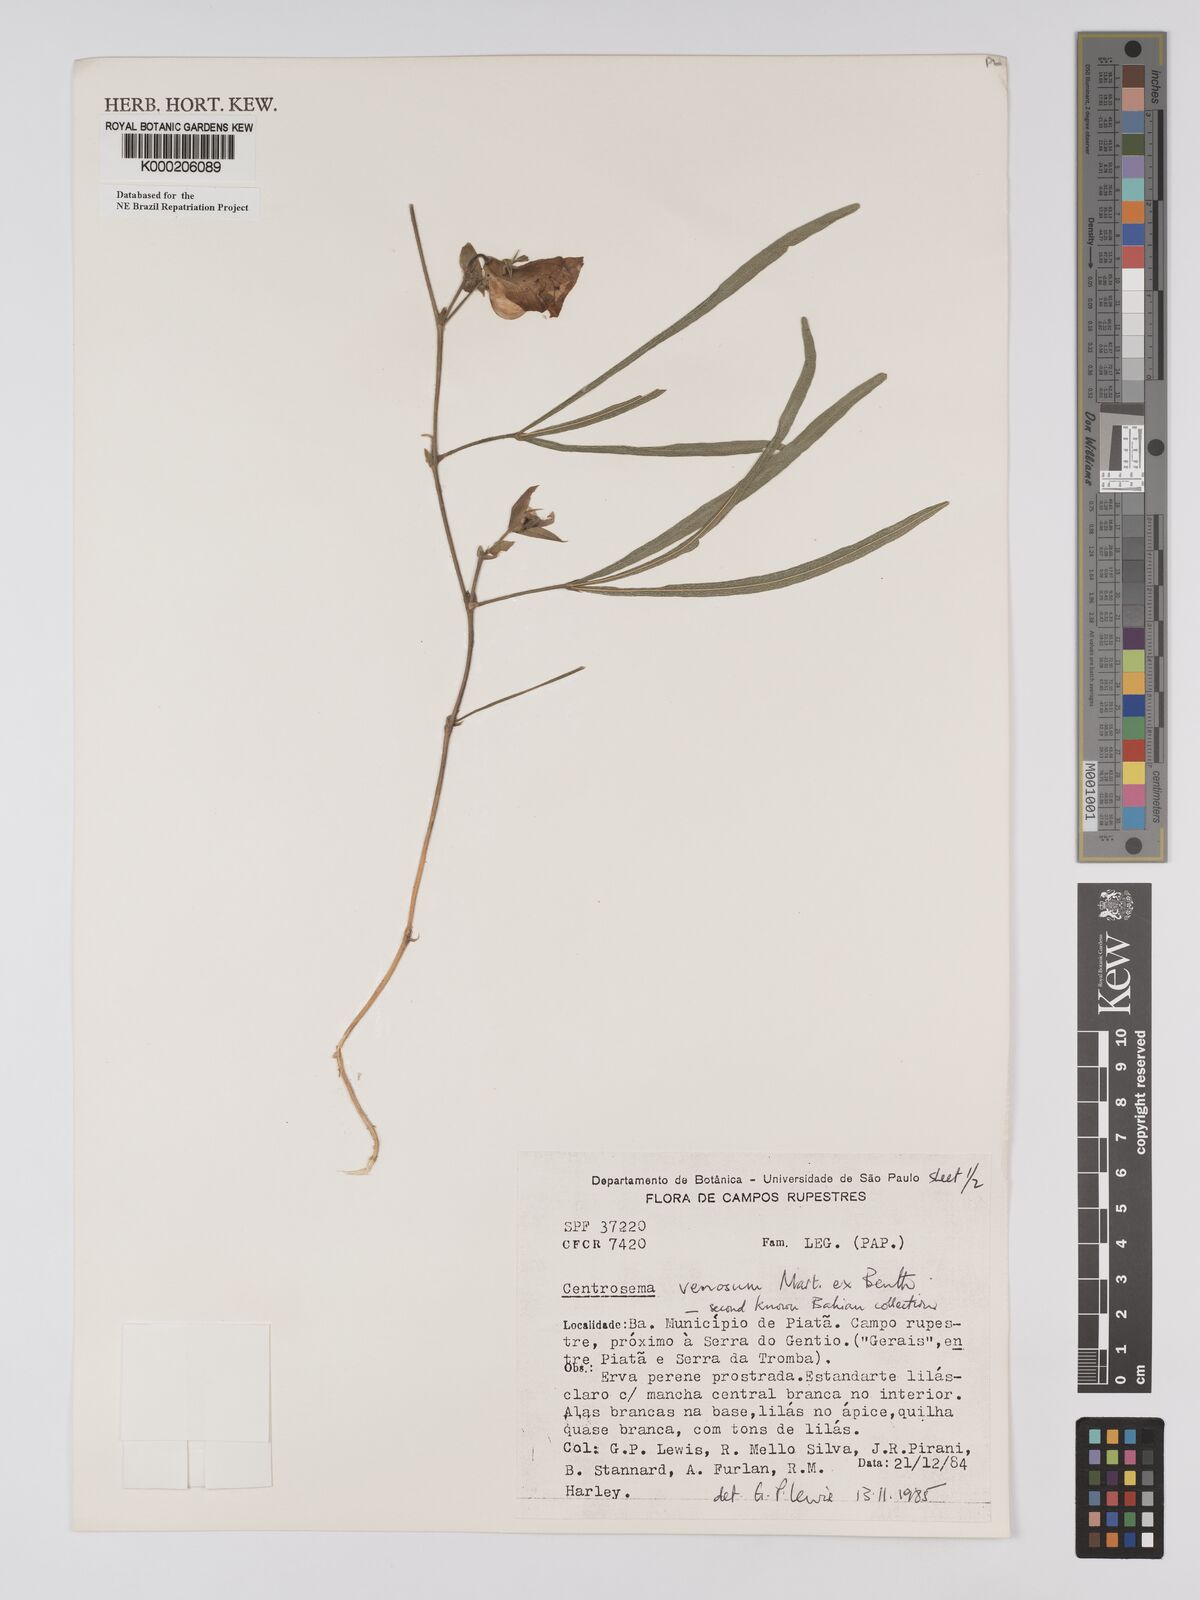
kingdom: Plantae
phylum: Tracheophyta
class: Magnoliopsida
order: Fabales
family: Fabaceae
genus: Centrosema
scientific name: Centrosema venosum
